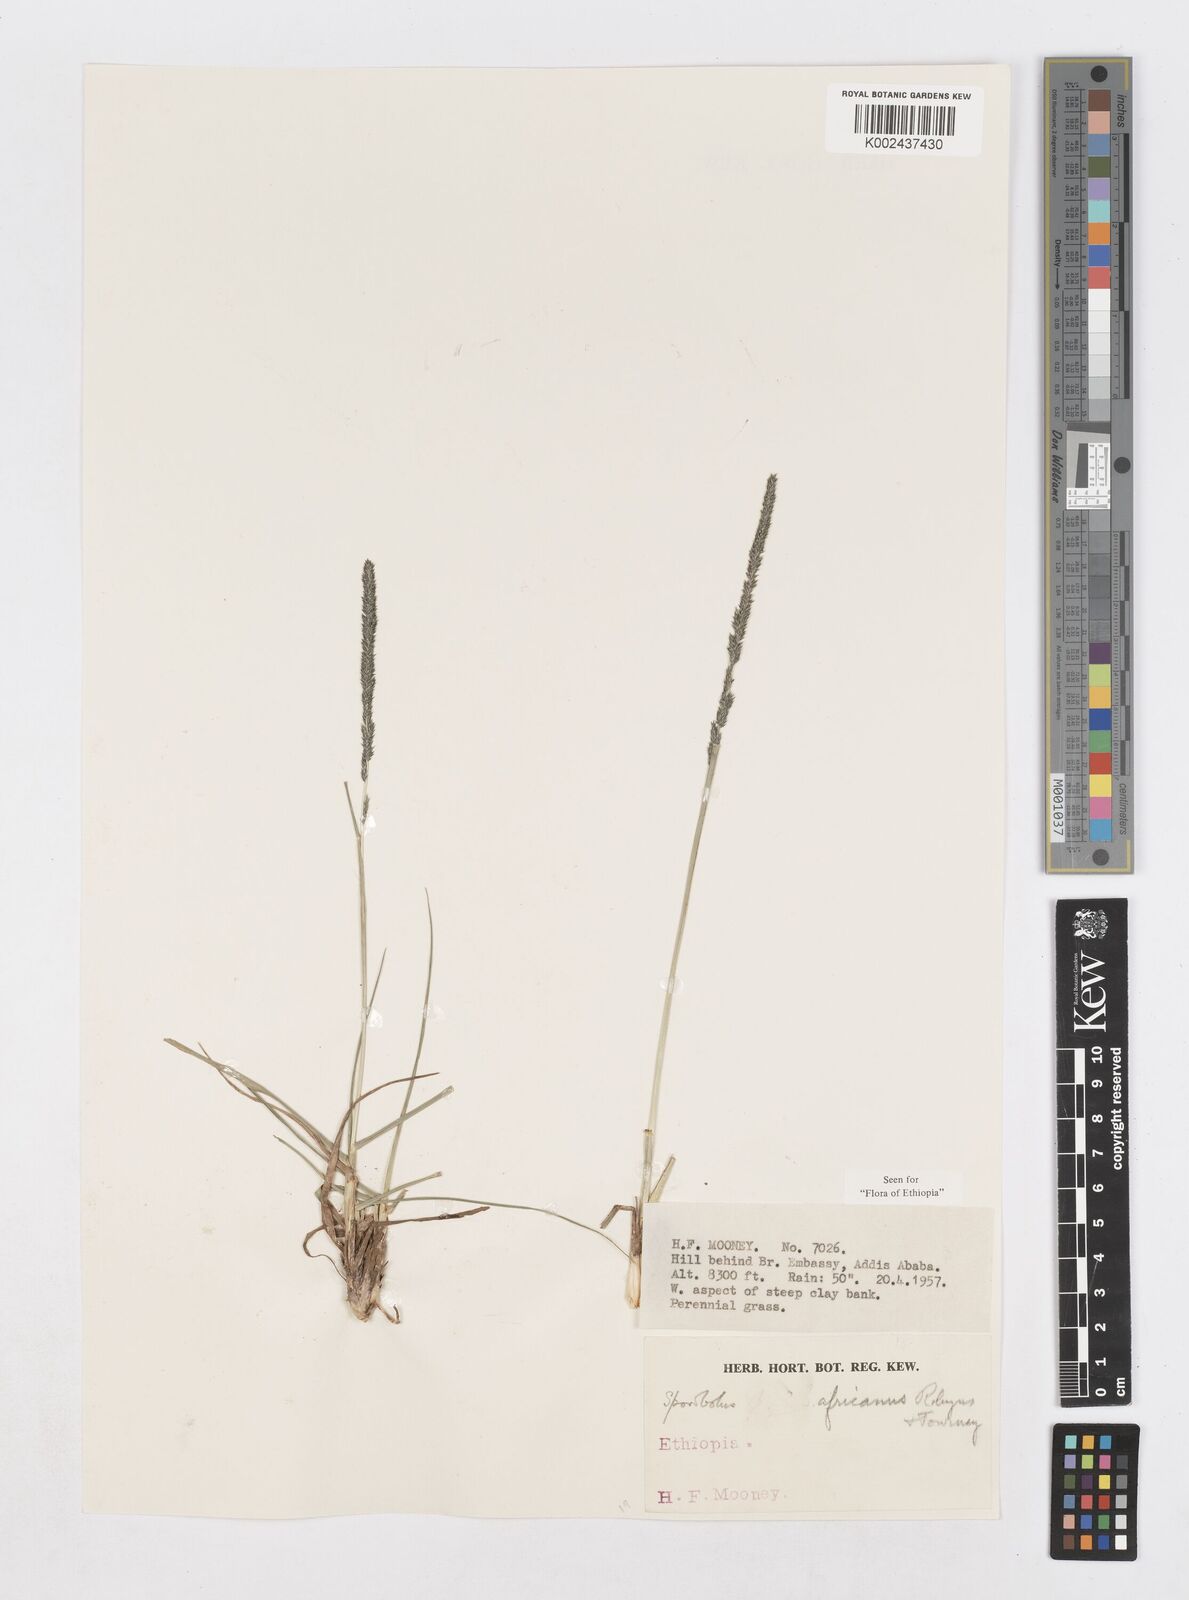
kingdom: Plantae
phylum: Tracheophyta
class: Liliopsida
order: Poales
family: Poaceae
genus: Sporobolus
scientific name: Sporobolus africanus
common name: African dropseed
